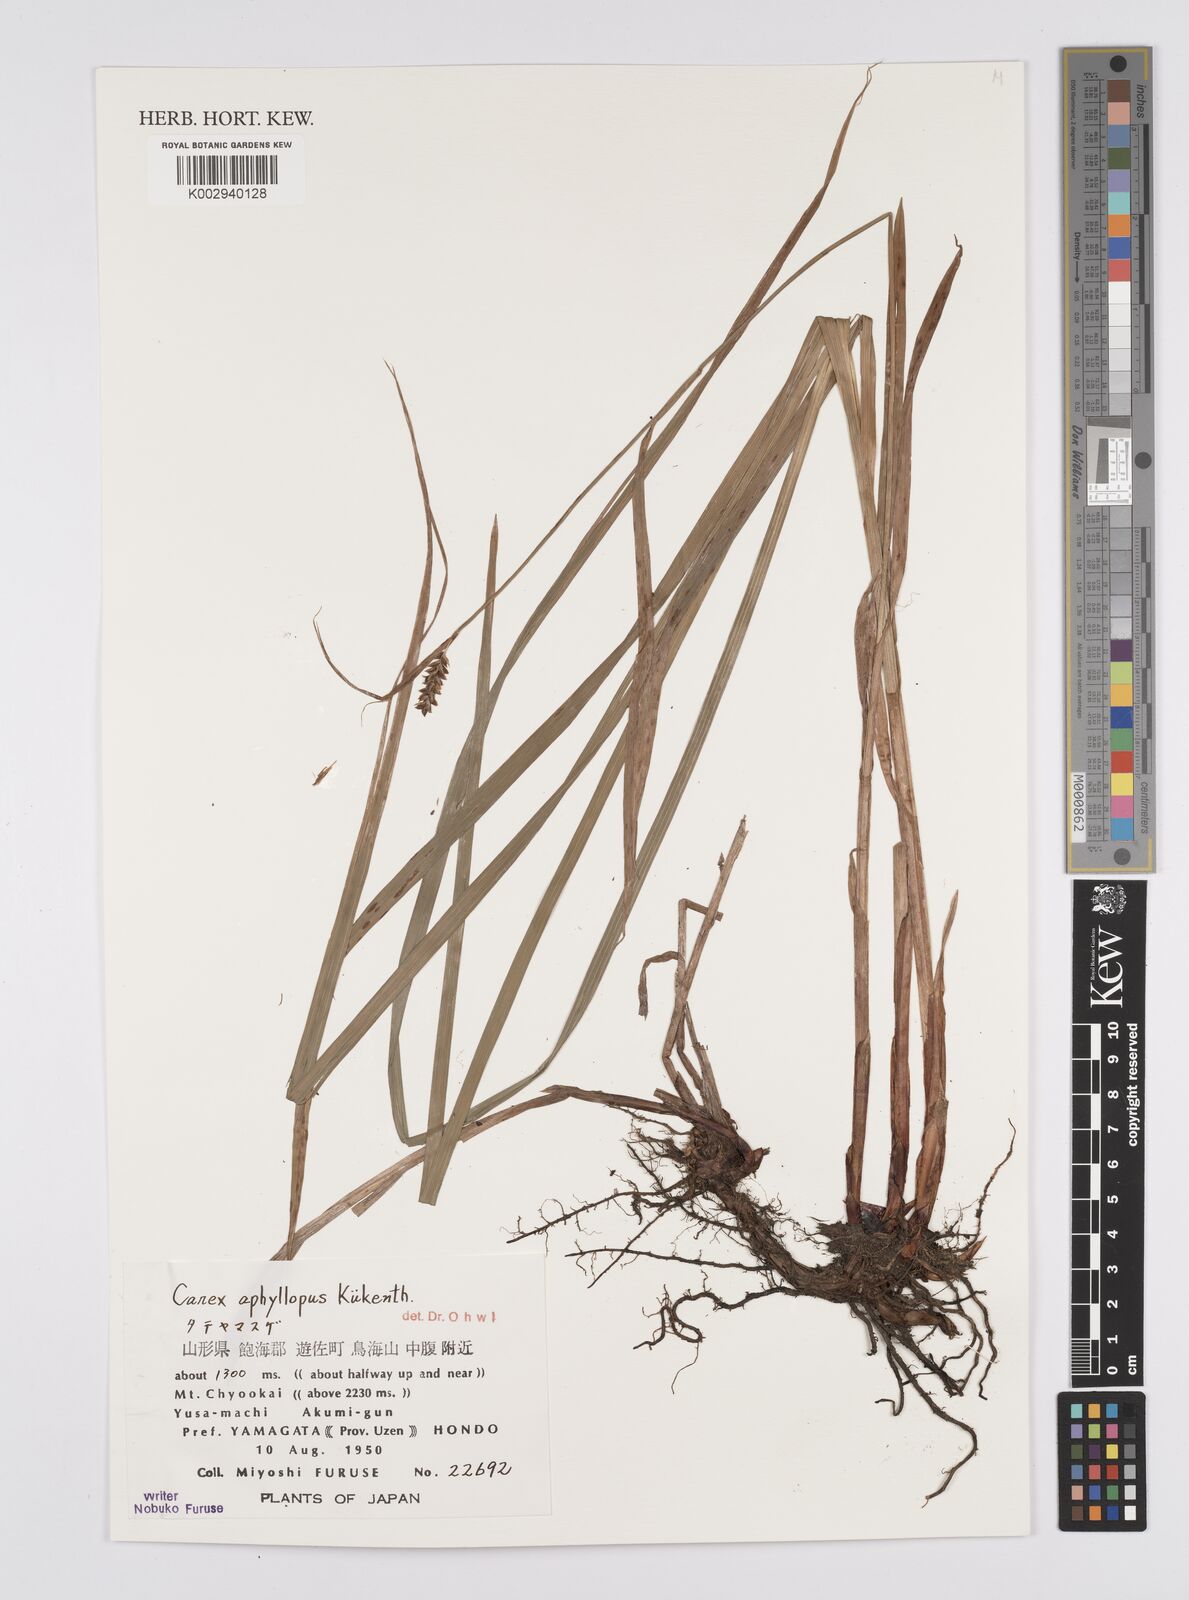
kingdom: Plantae
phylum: Tracheophyta
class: Liliopsida
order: Poales
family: Cyperaceae
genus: Carex
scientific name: Carex aphyllopus
